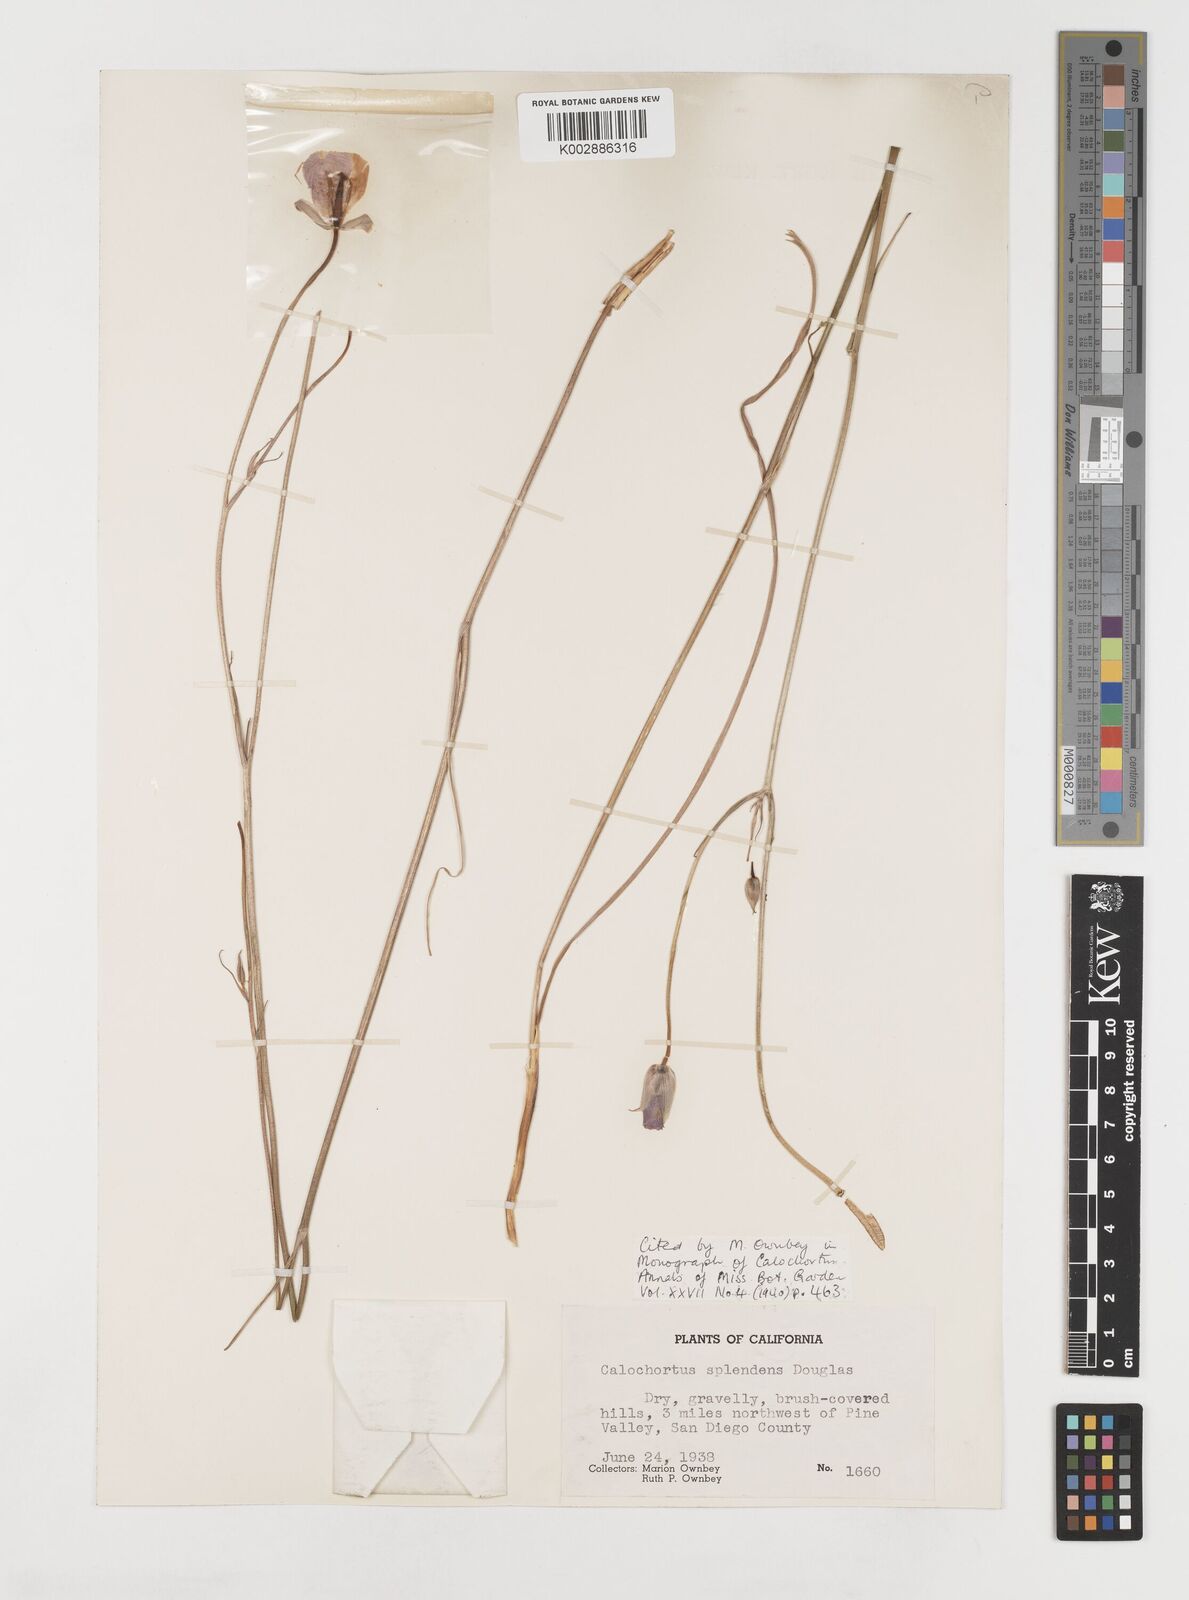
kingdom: Plantae
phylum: Tracheophyta
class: Liliopsida
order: Liliales
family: Liliaceae
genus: Calochortus
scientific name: Calochortus splendens
